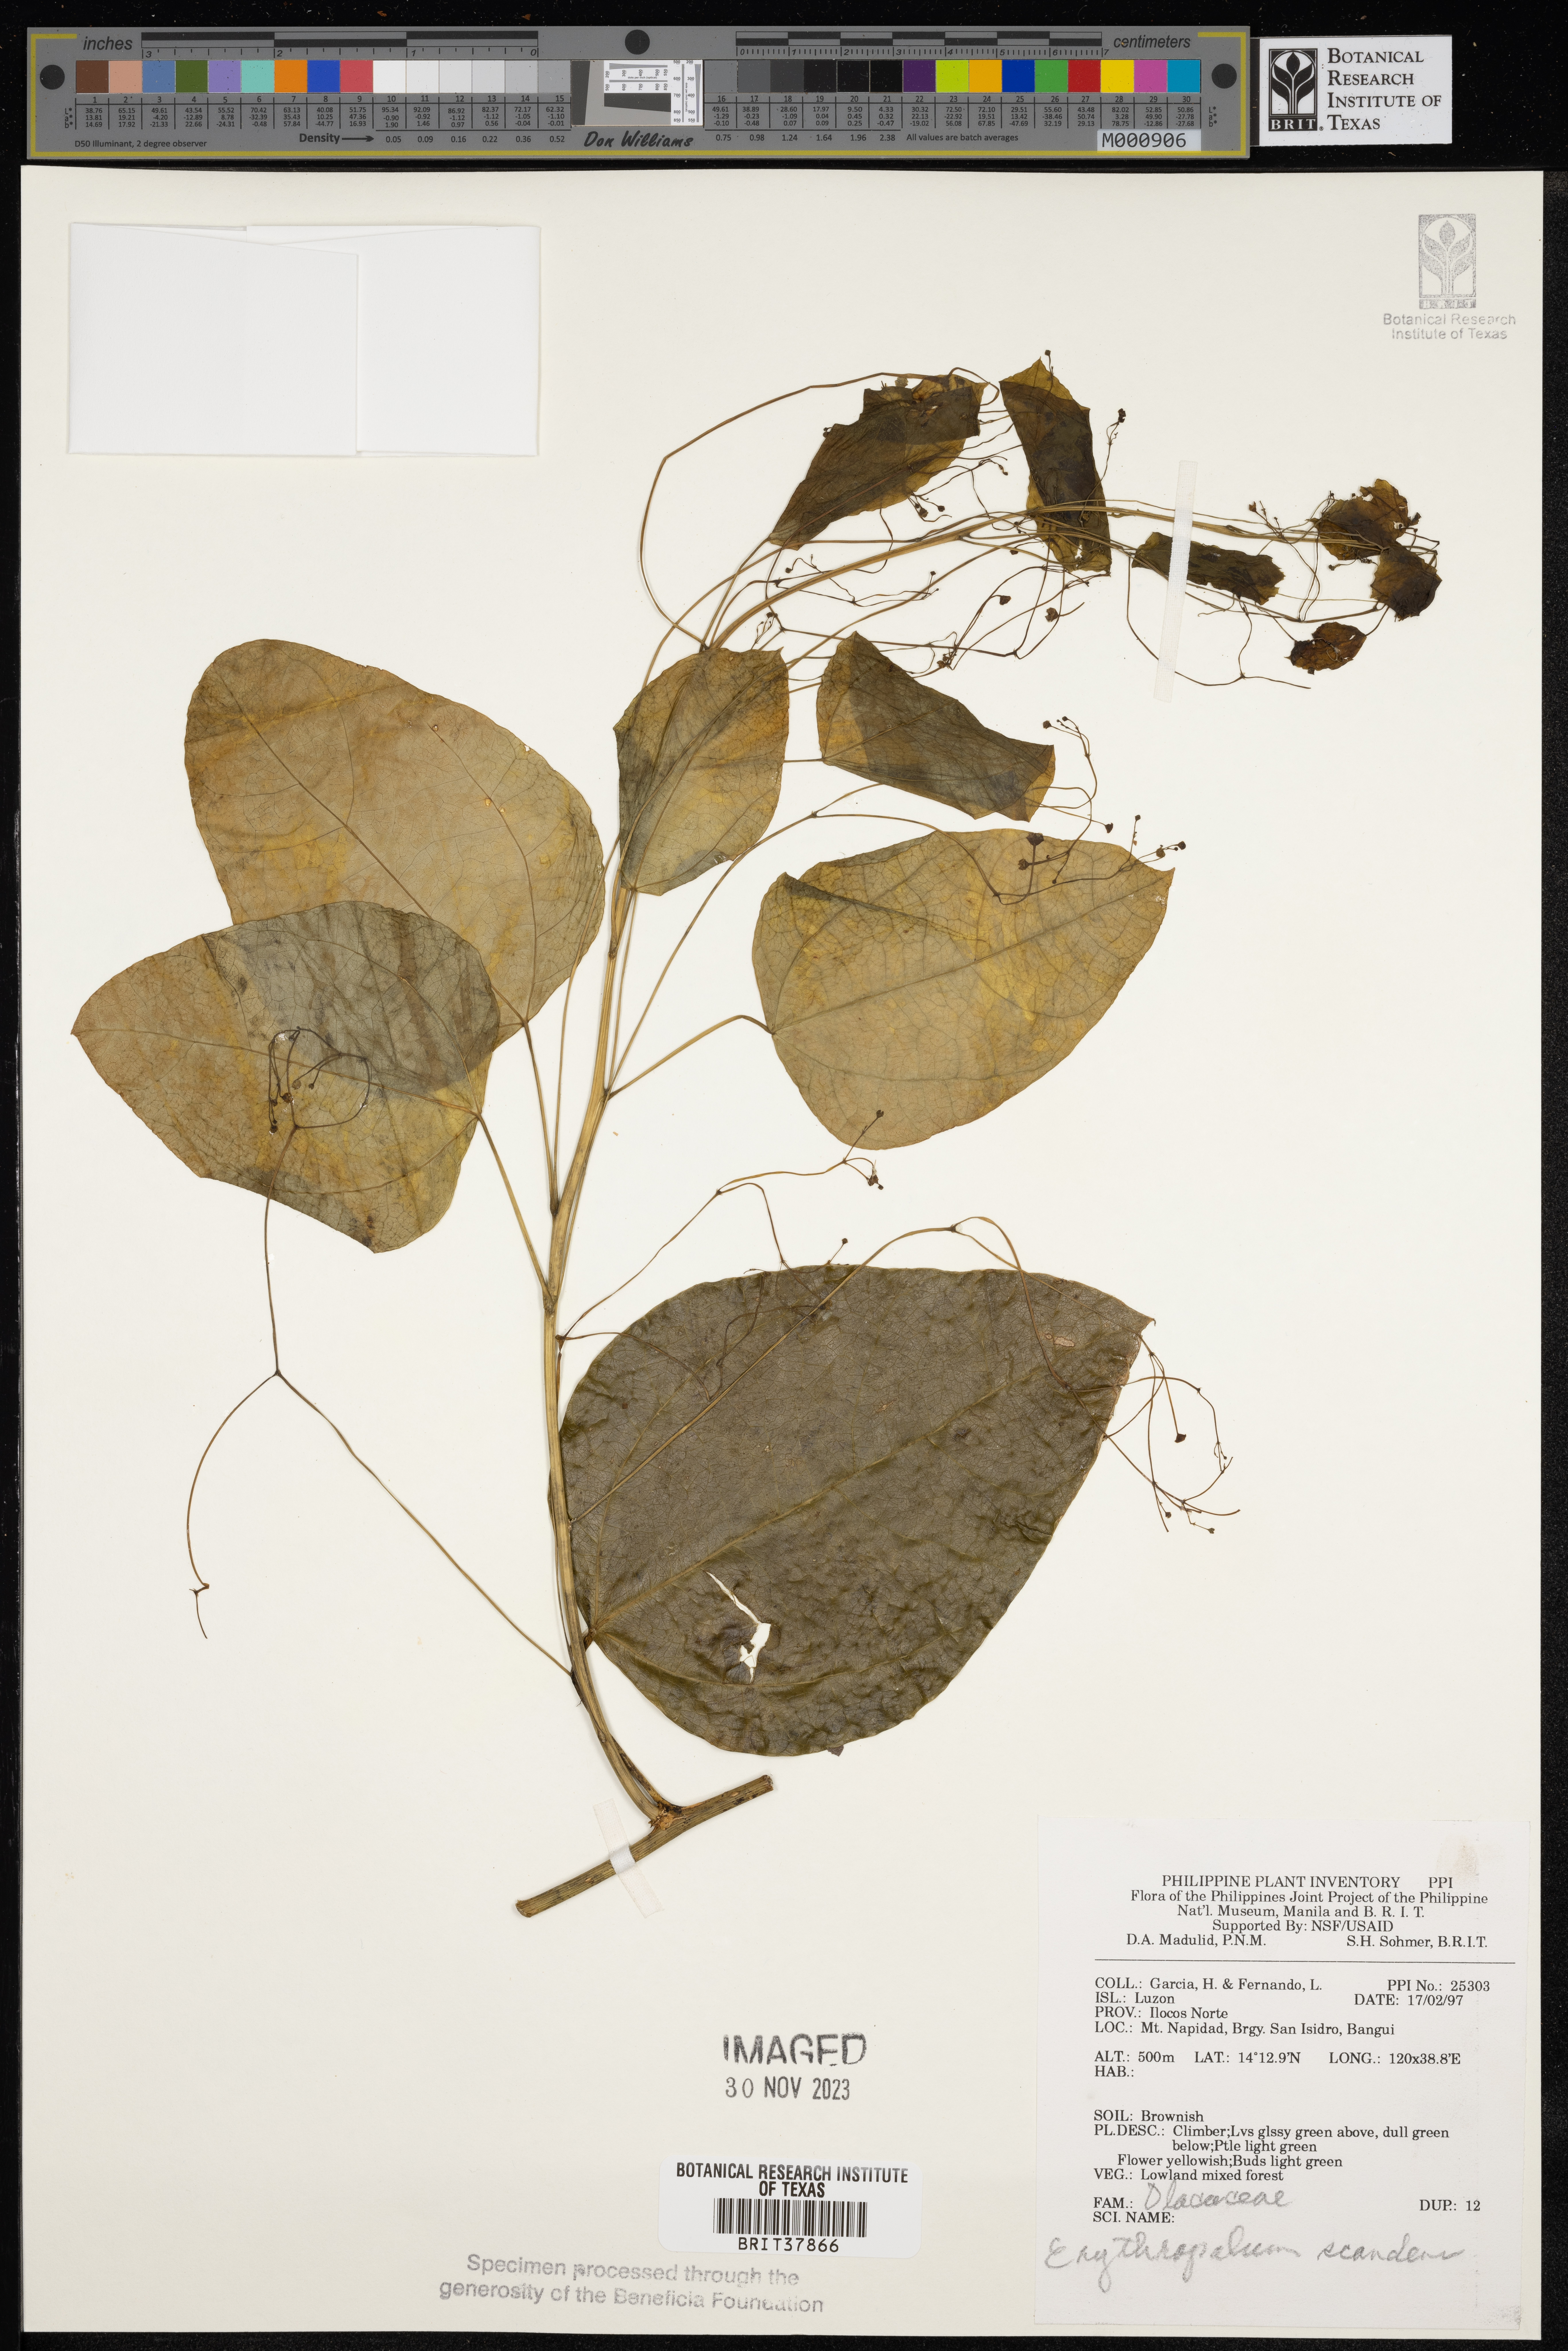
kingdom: Plantae
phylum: Tracheophyta
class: Magnoliopsida
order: Santalales
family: Erythropalaceae
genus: Erythropalum
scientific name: Erythropalum scandens
